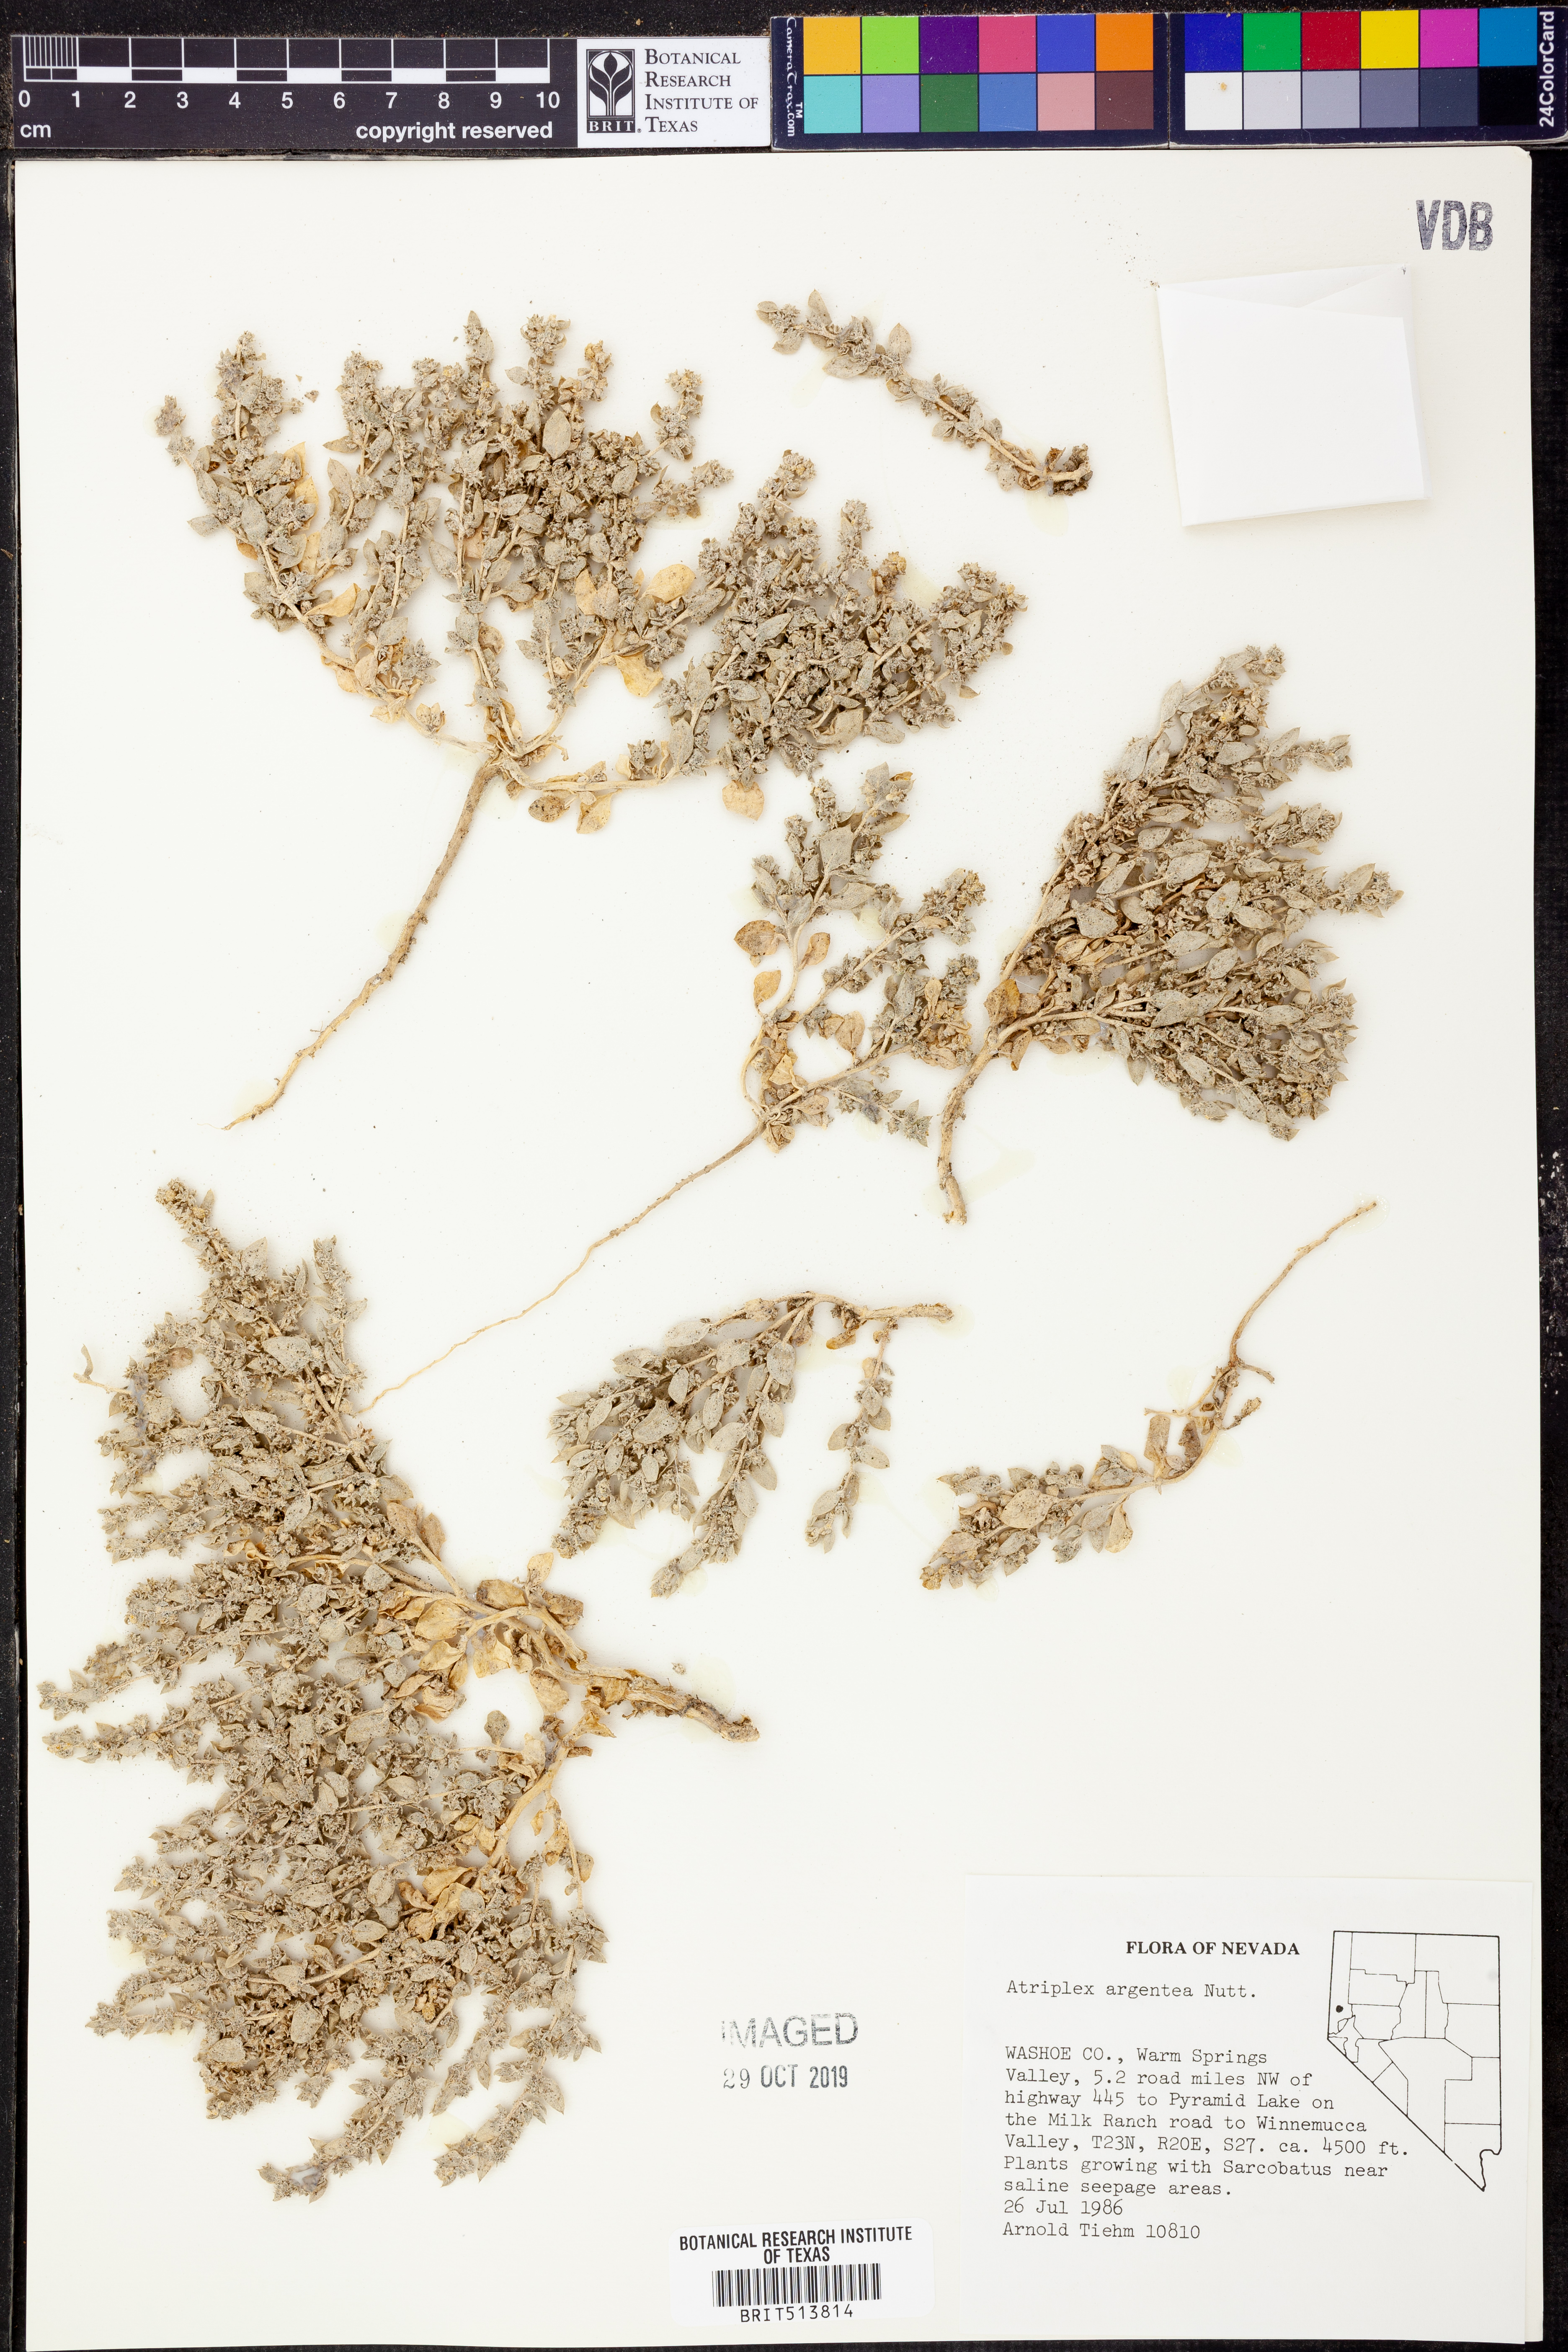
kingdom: Plantae
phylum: Tracheophyta
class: Magnoliopsida
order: Caryophyllales
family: Amaranthaceae
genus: Atriplex
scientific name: Atriplex argentea
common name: Silverscale
